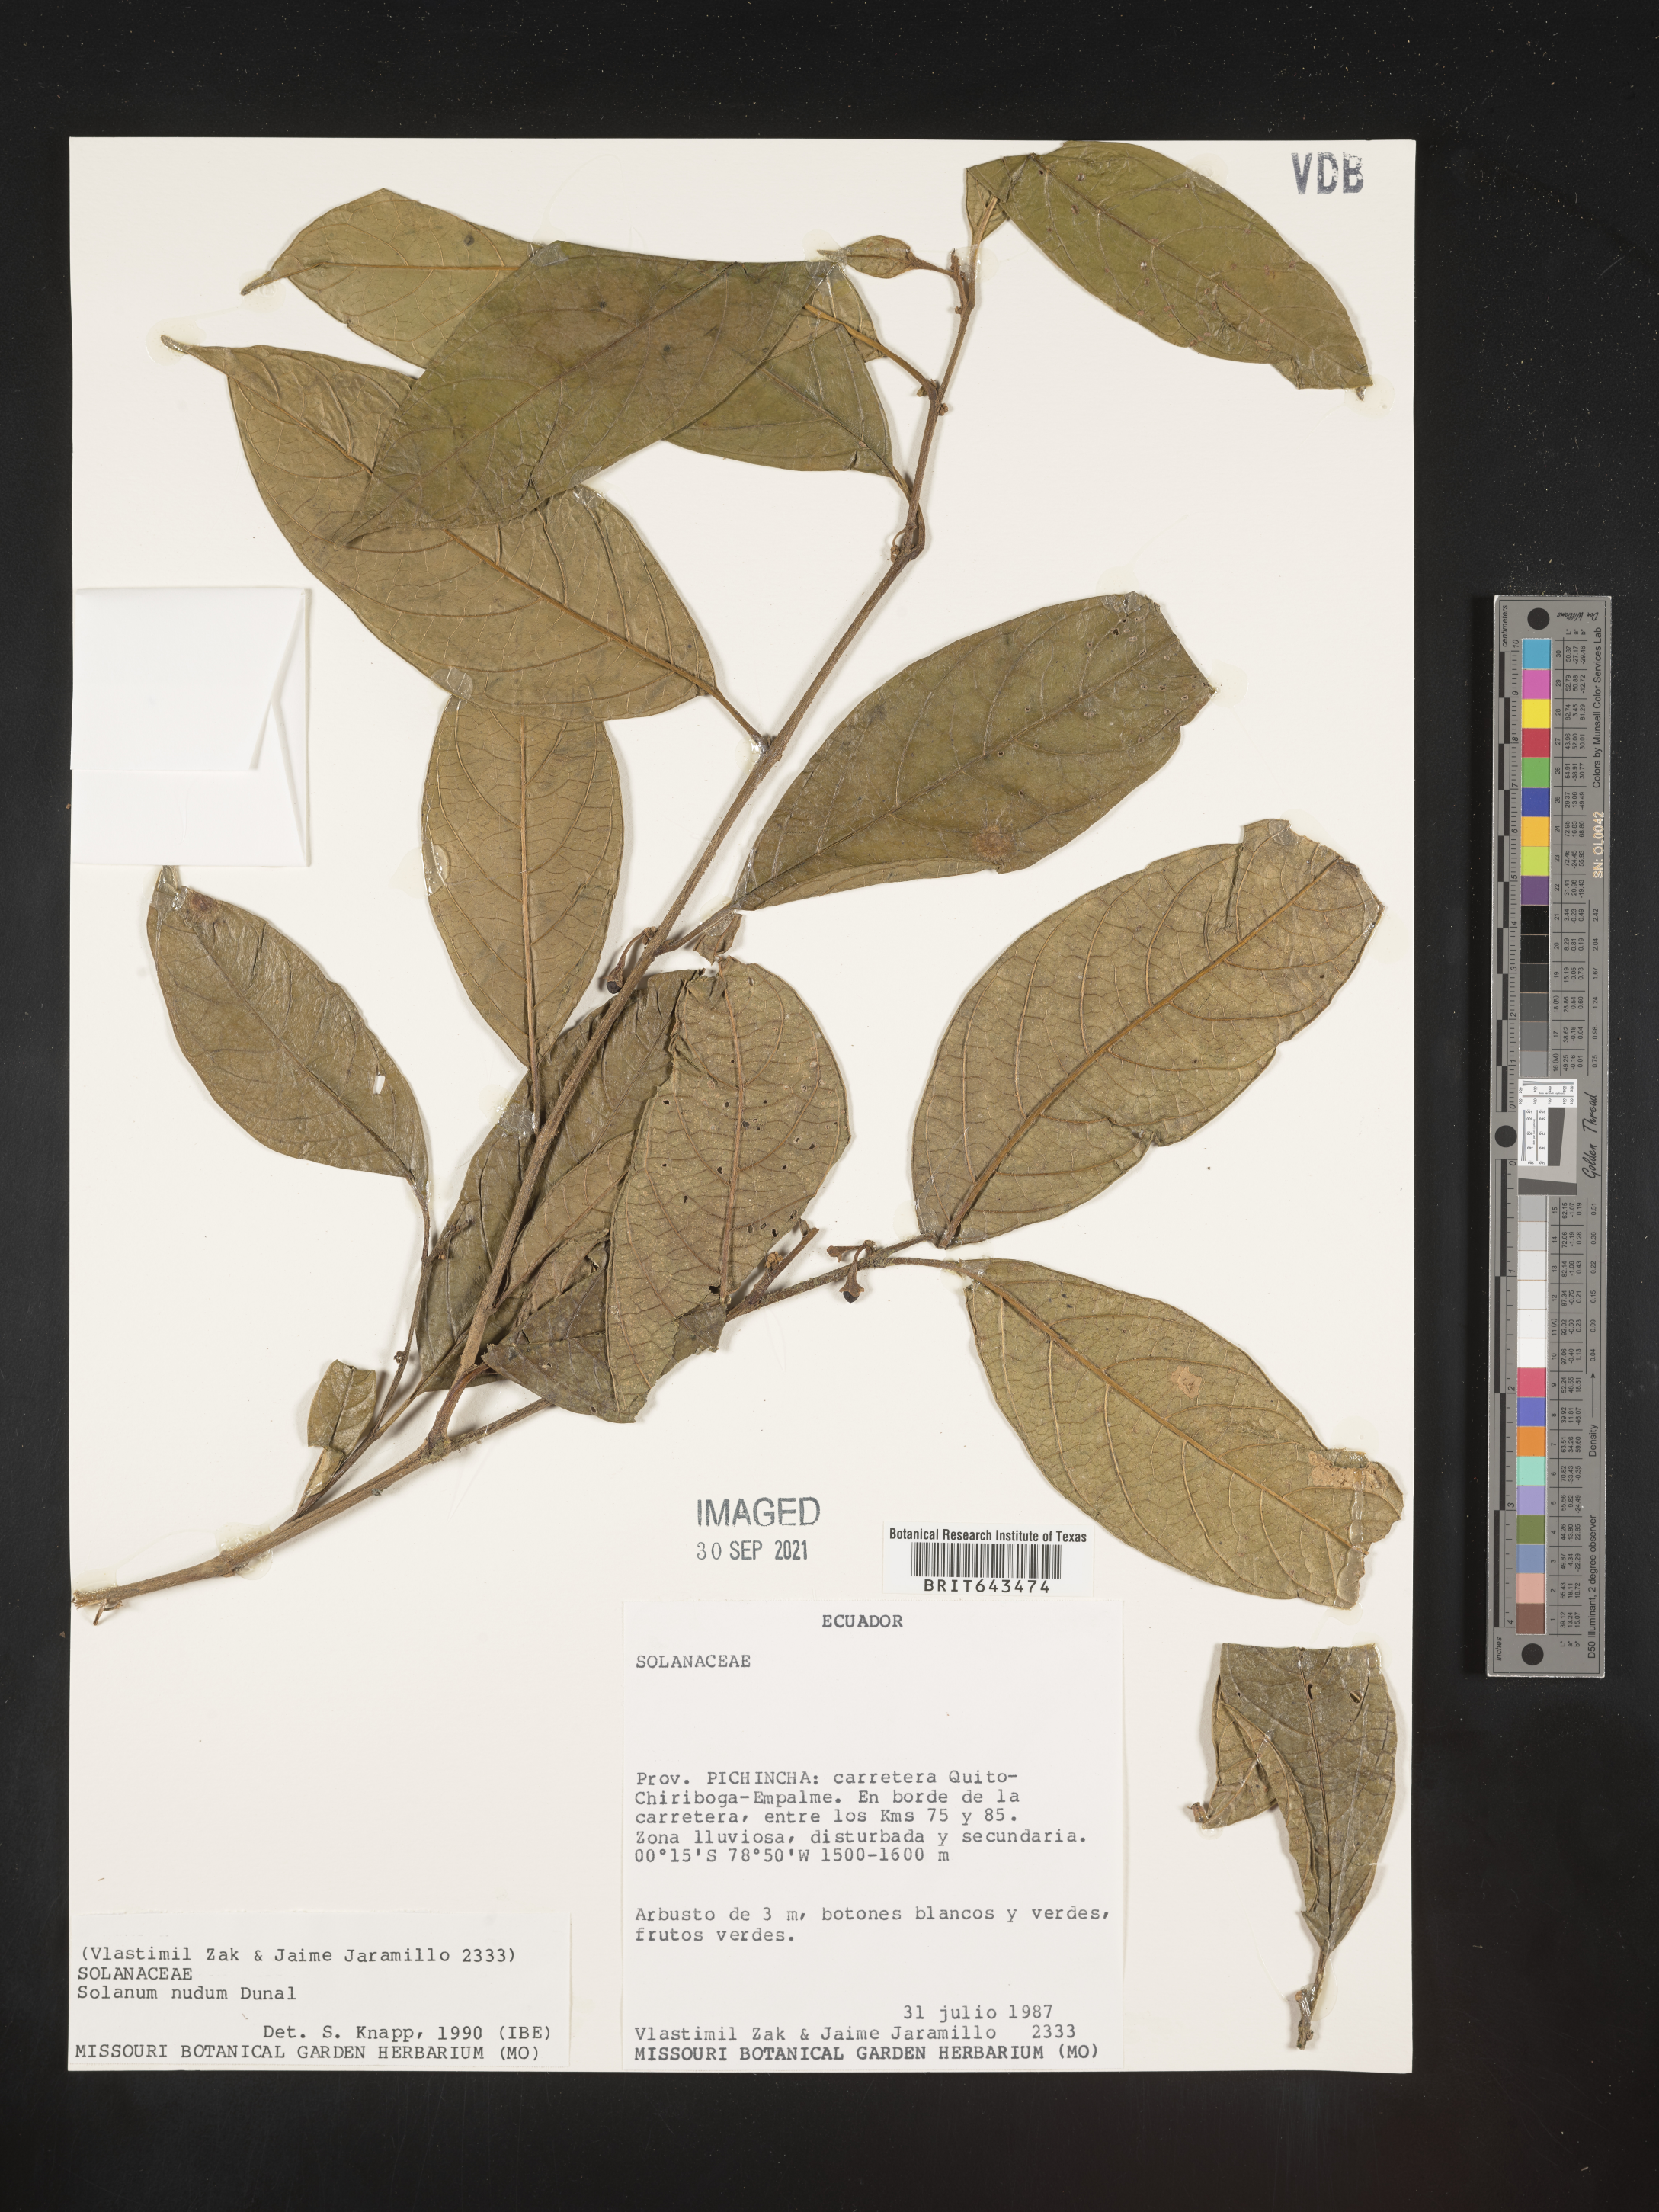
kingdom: Plantae
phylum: Tracheophyta
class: Magnoliopsida
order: Solanales
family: Solanaceae
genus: Solanum
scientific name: Solanum
